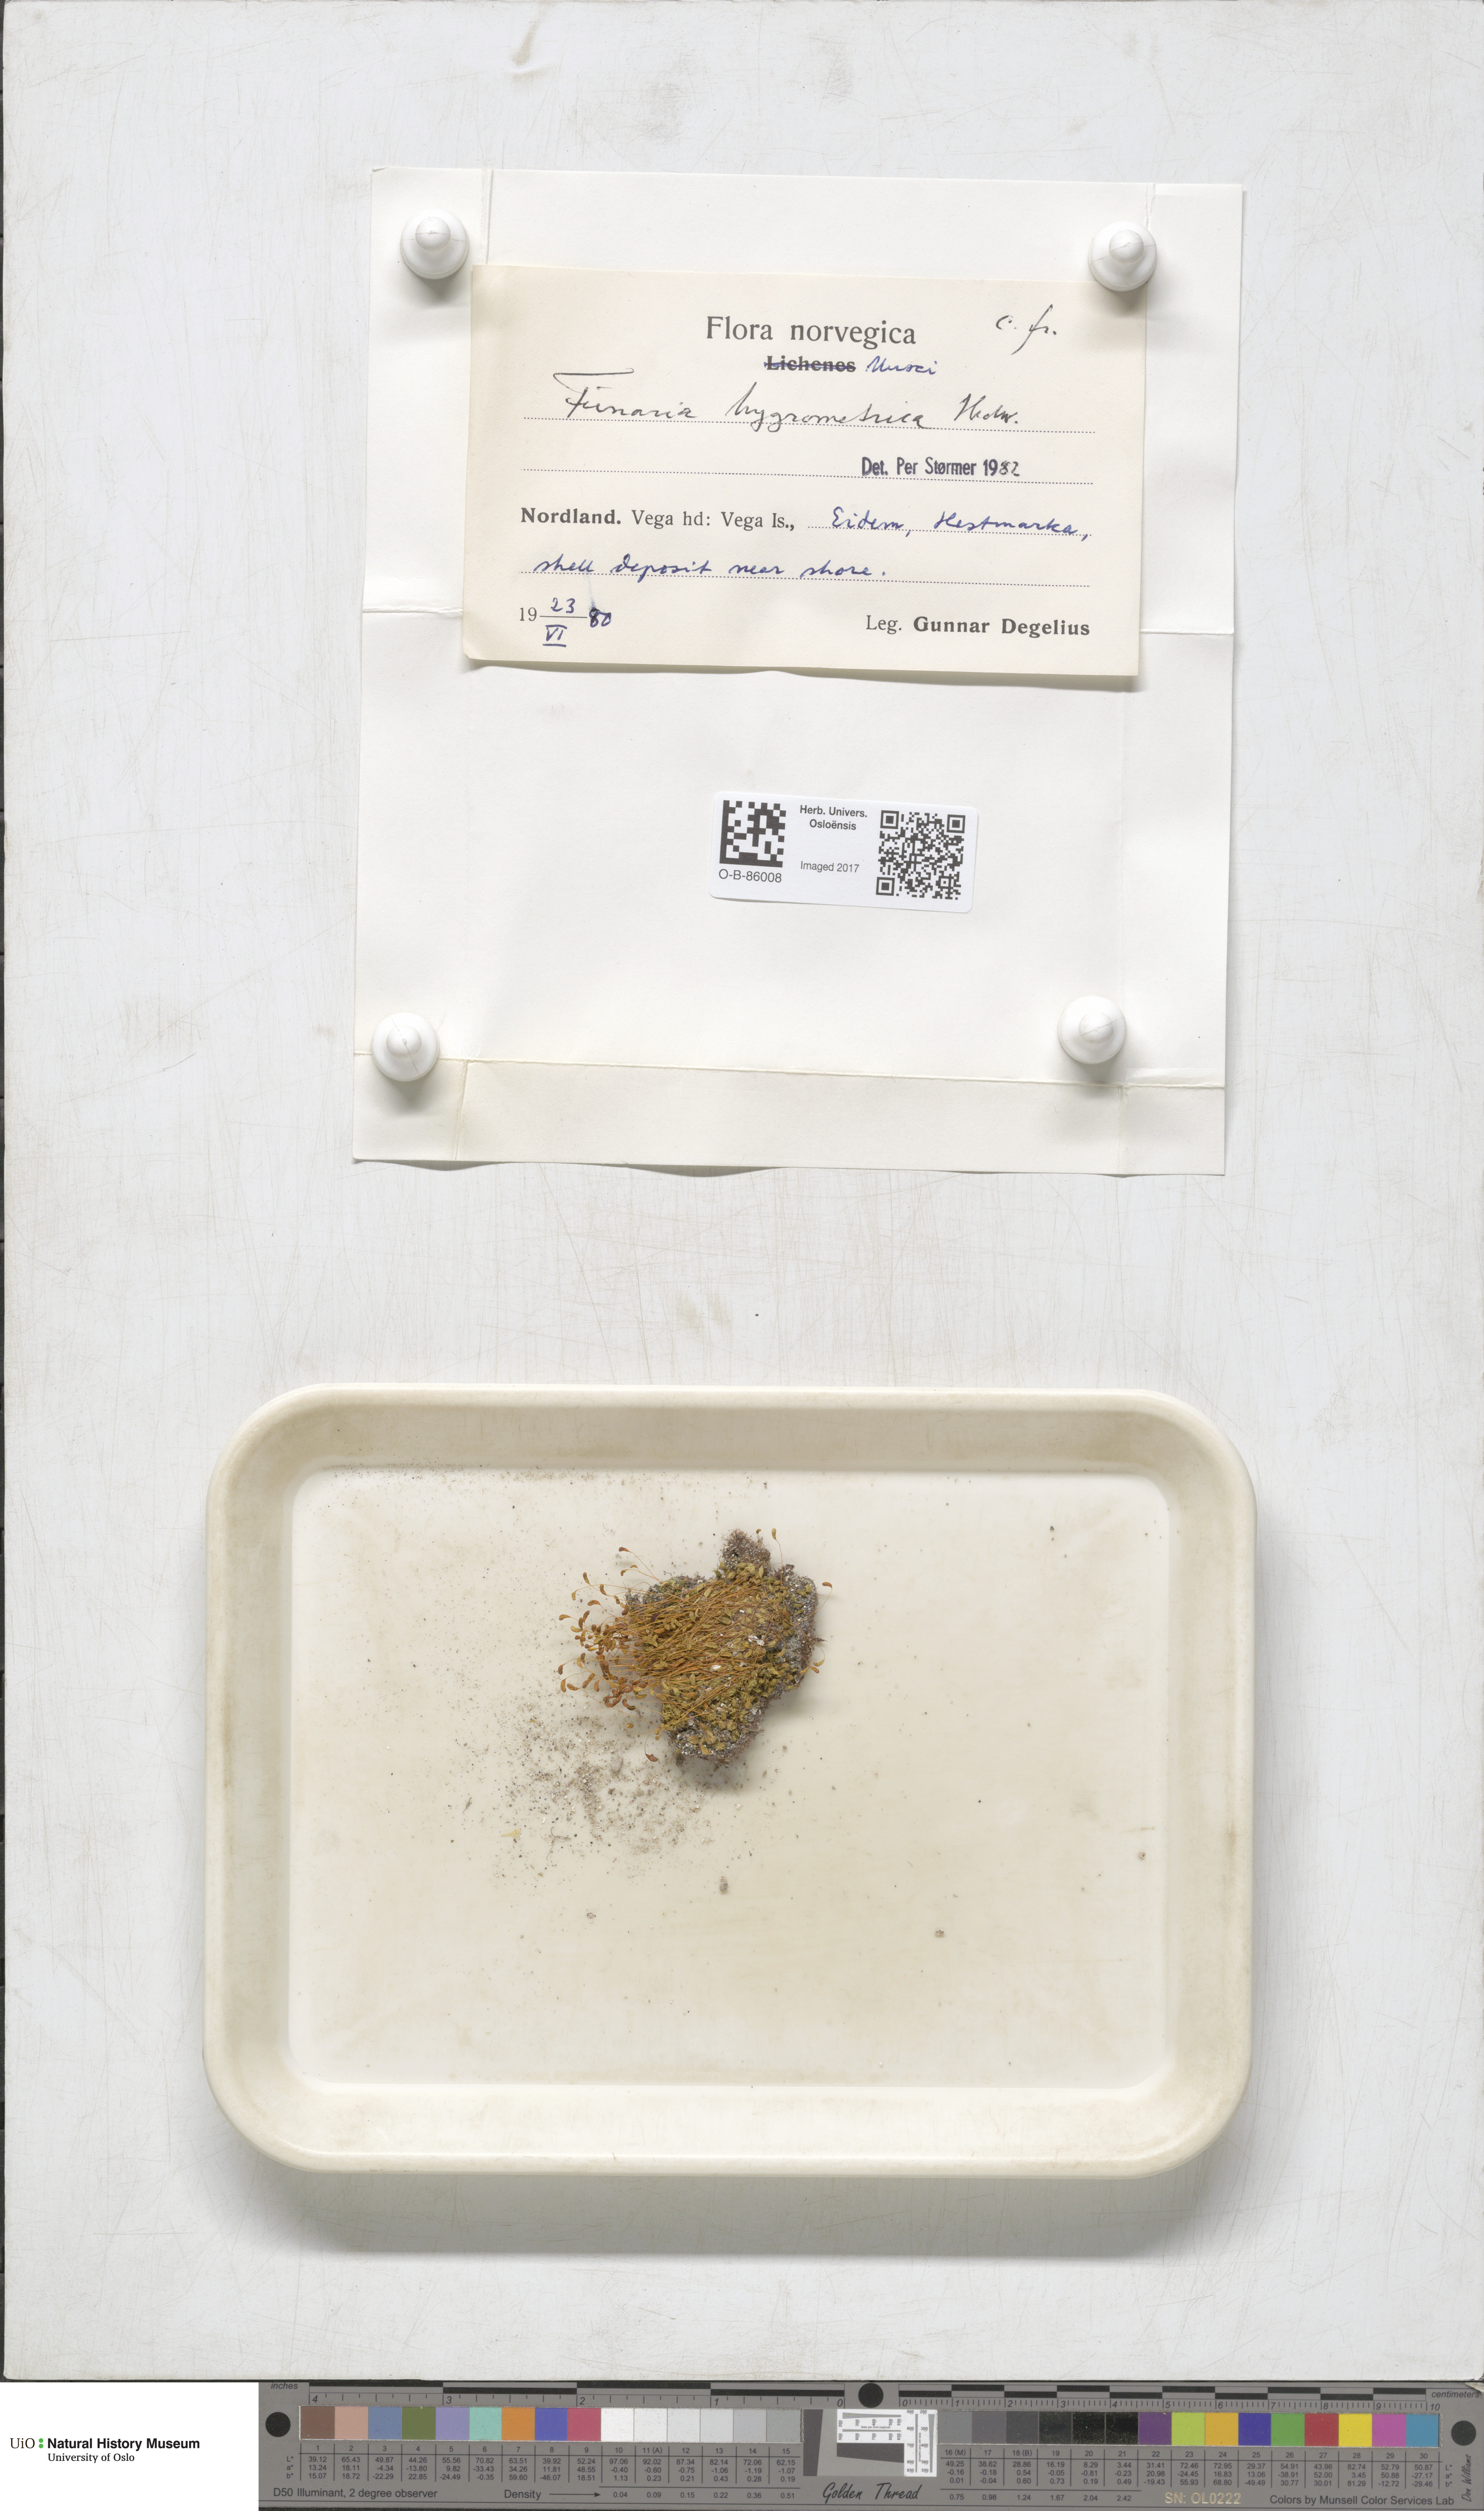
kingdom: Plantae
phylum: Bryophyta
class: Bryopsida
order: Funariales
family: Funariaceae
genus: Funaria
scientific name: Funaria hygrometrica
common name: Common cord moss
